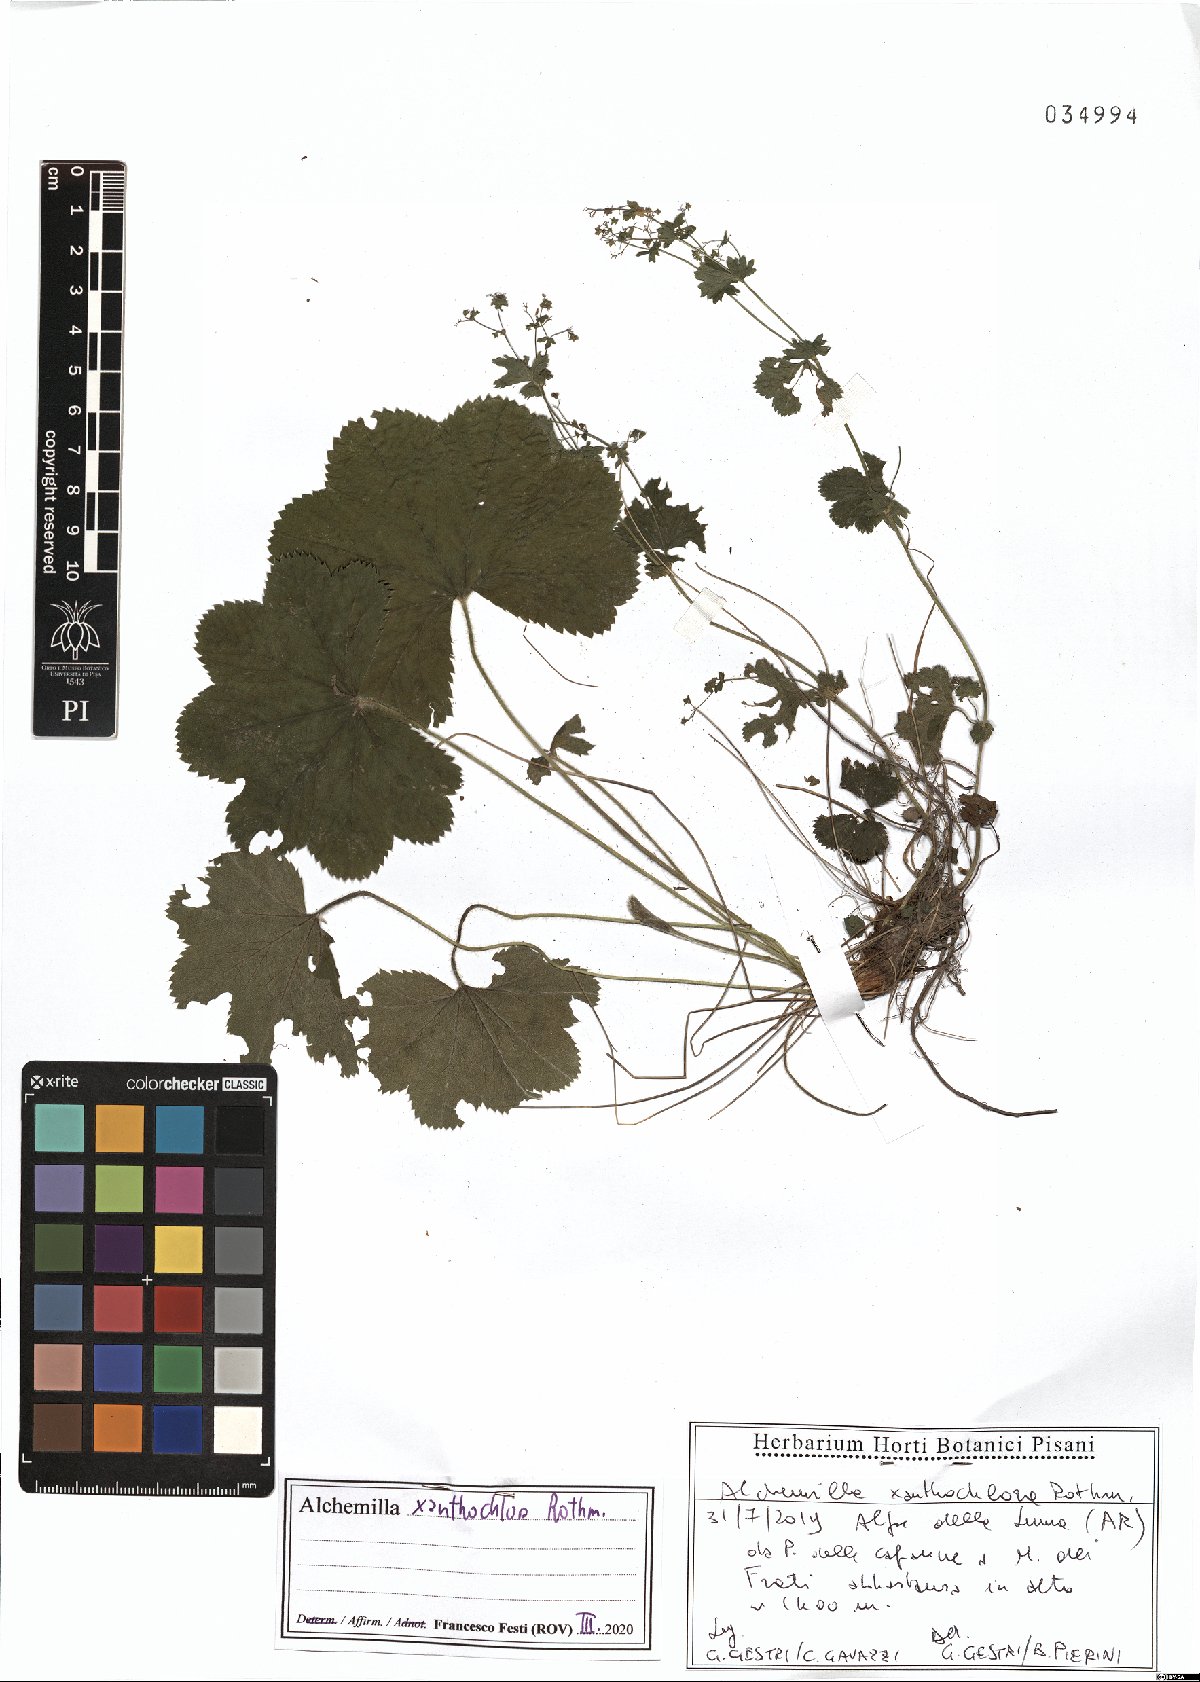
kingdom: Plantae
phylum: Tracheophyta
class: Magnoliopsida
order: Rosales
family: Rosaceae
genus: Alchemilla
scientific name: Alchemilla xanthochlora
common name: Intermediate lady's-mantle
